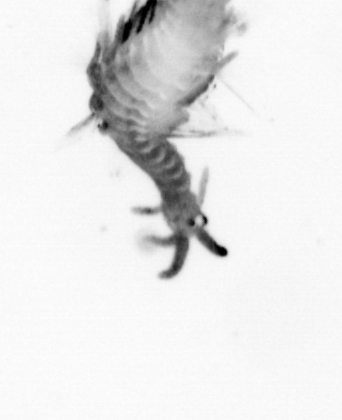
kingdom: Animalia
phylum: Annelida
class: Polychaeta
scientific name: Polychaeta
